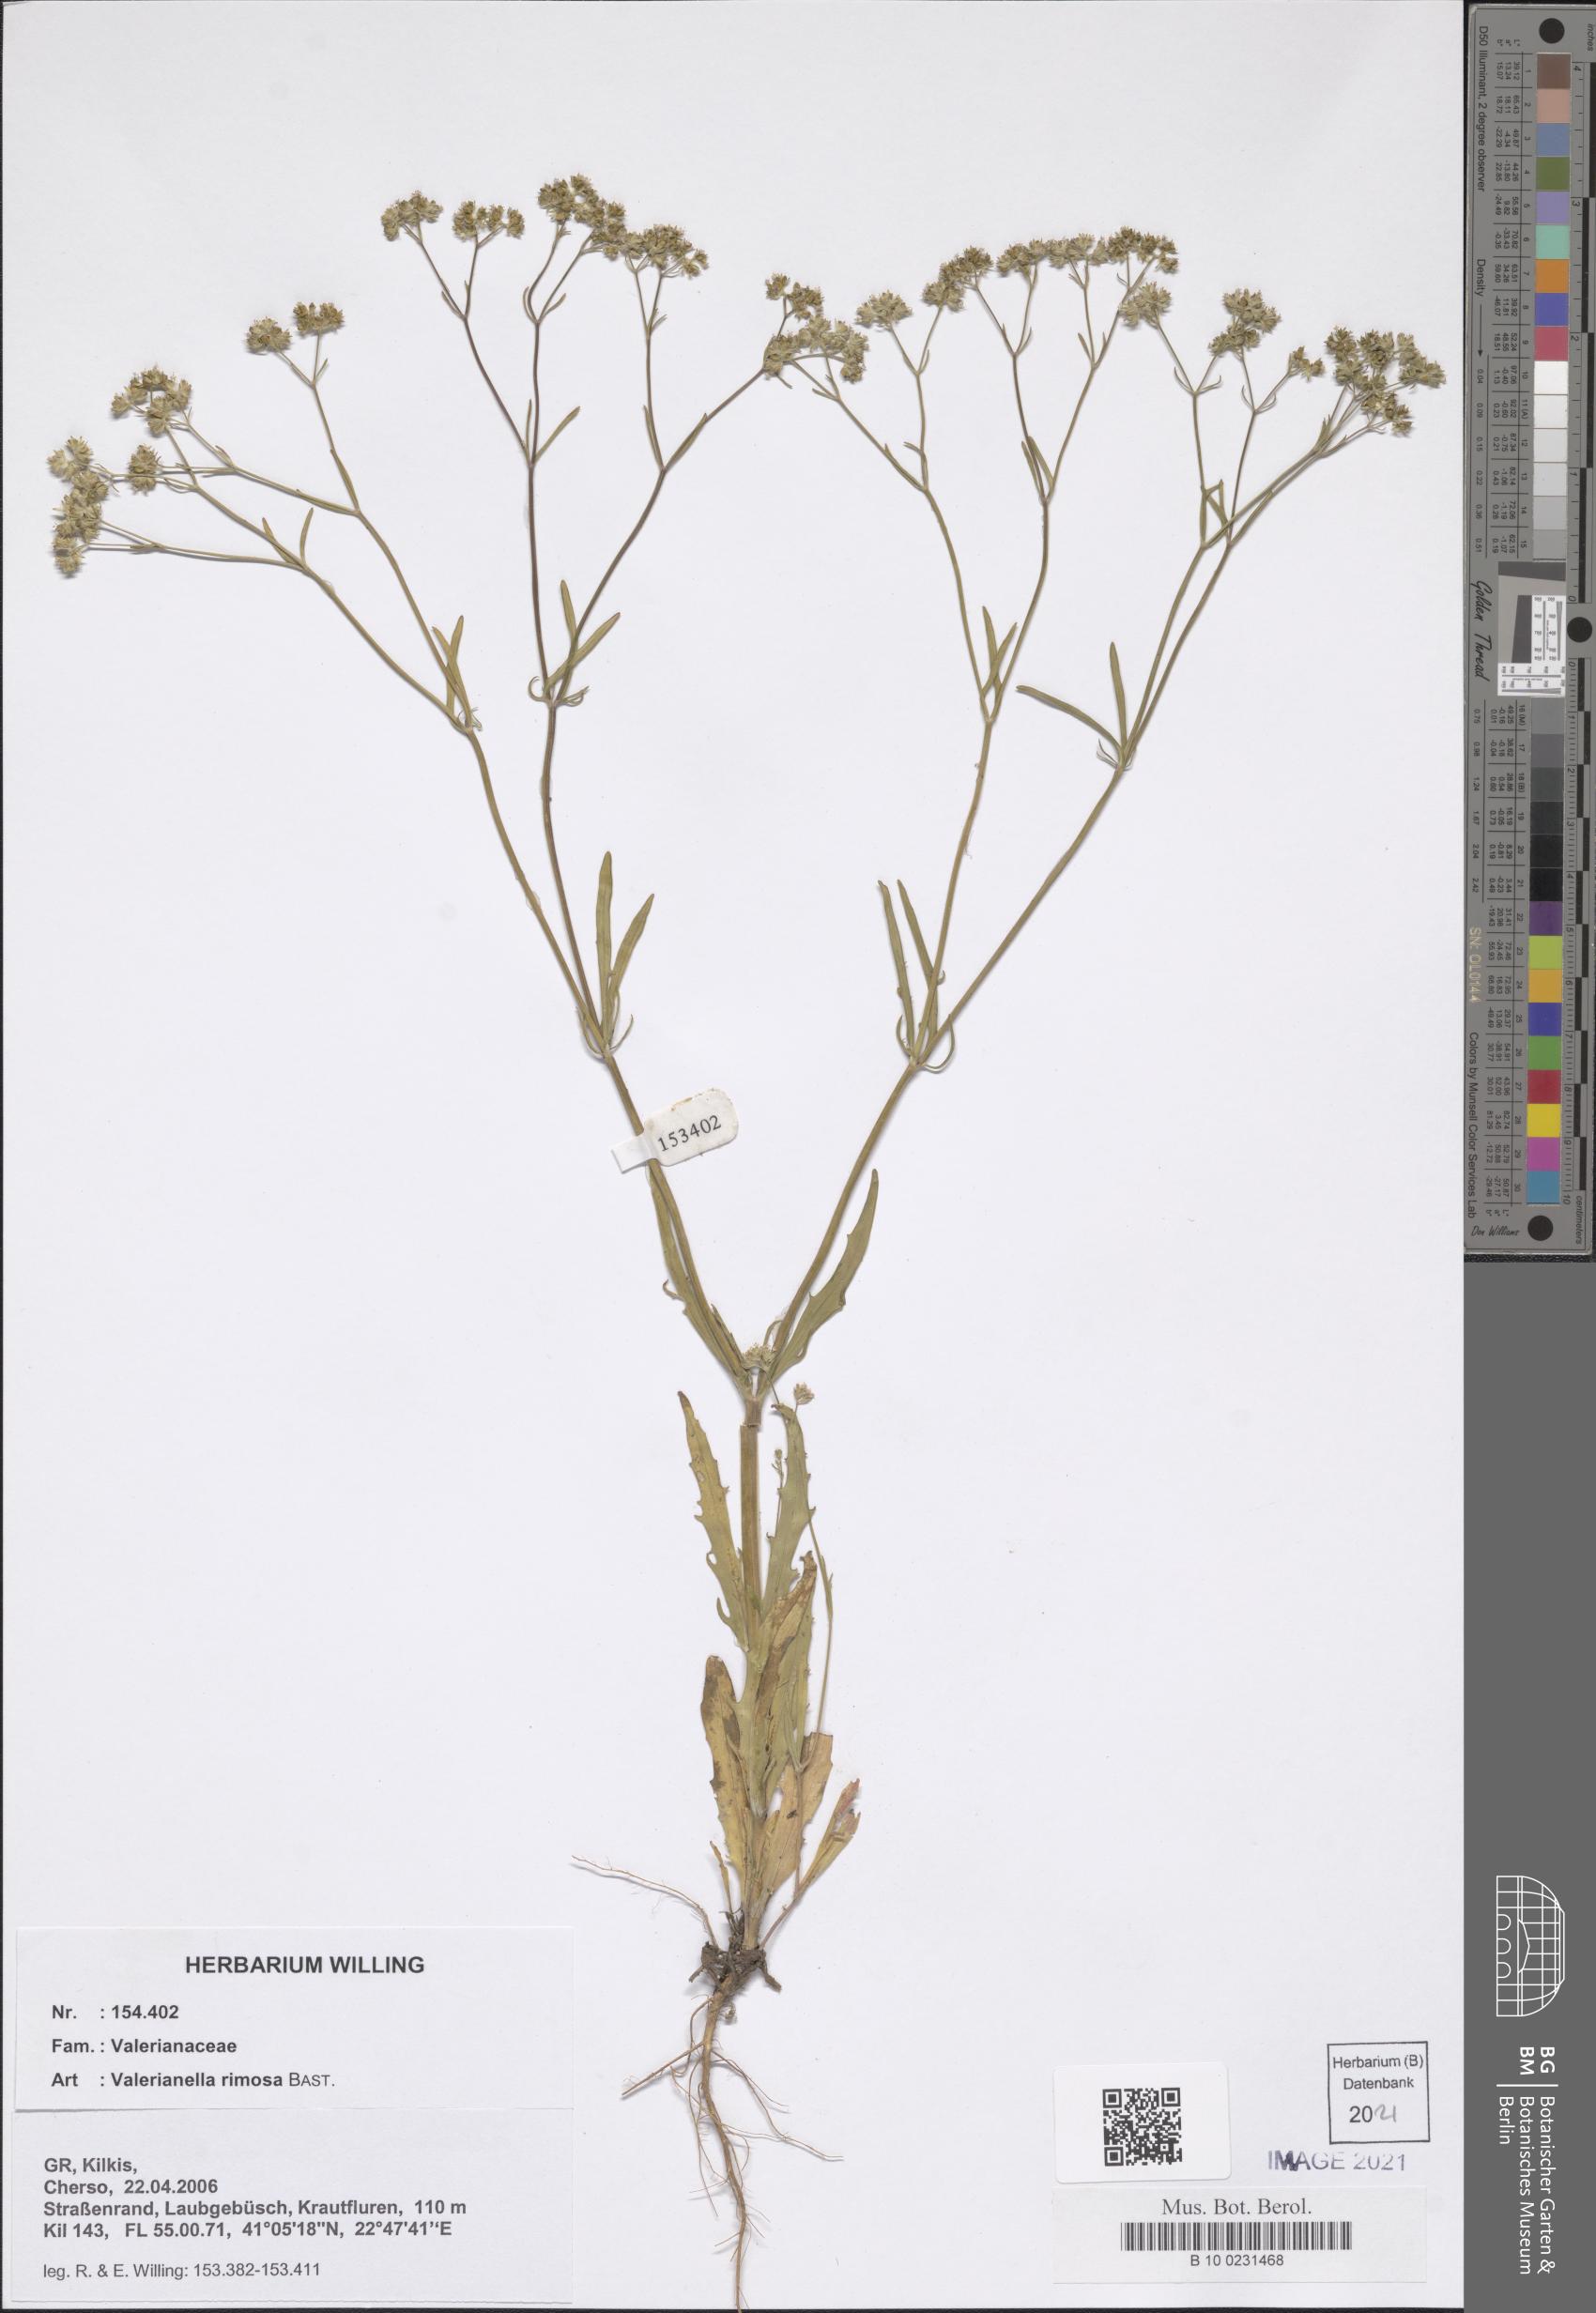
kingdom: Plantae
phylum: Tracheophyta
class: Magnoliopsida
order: Dipsacales
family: Caprifoliaceae
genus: Valerianella
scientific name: Valerianella rimosa
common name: Broad-fruited cornsalad
